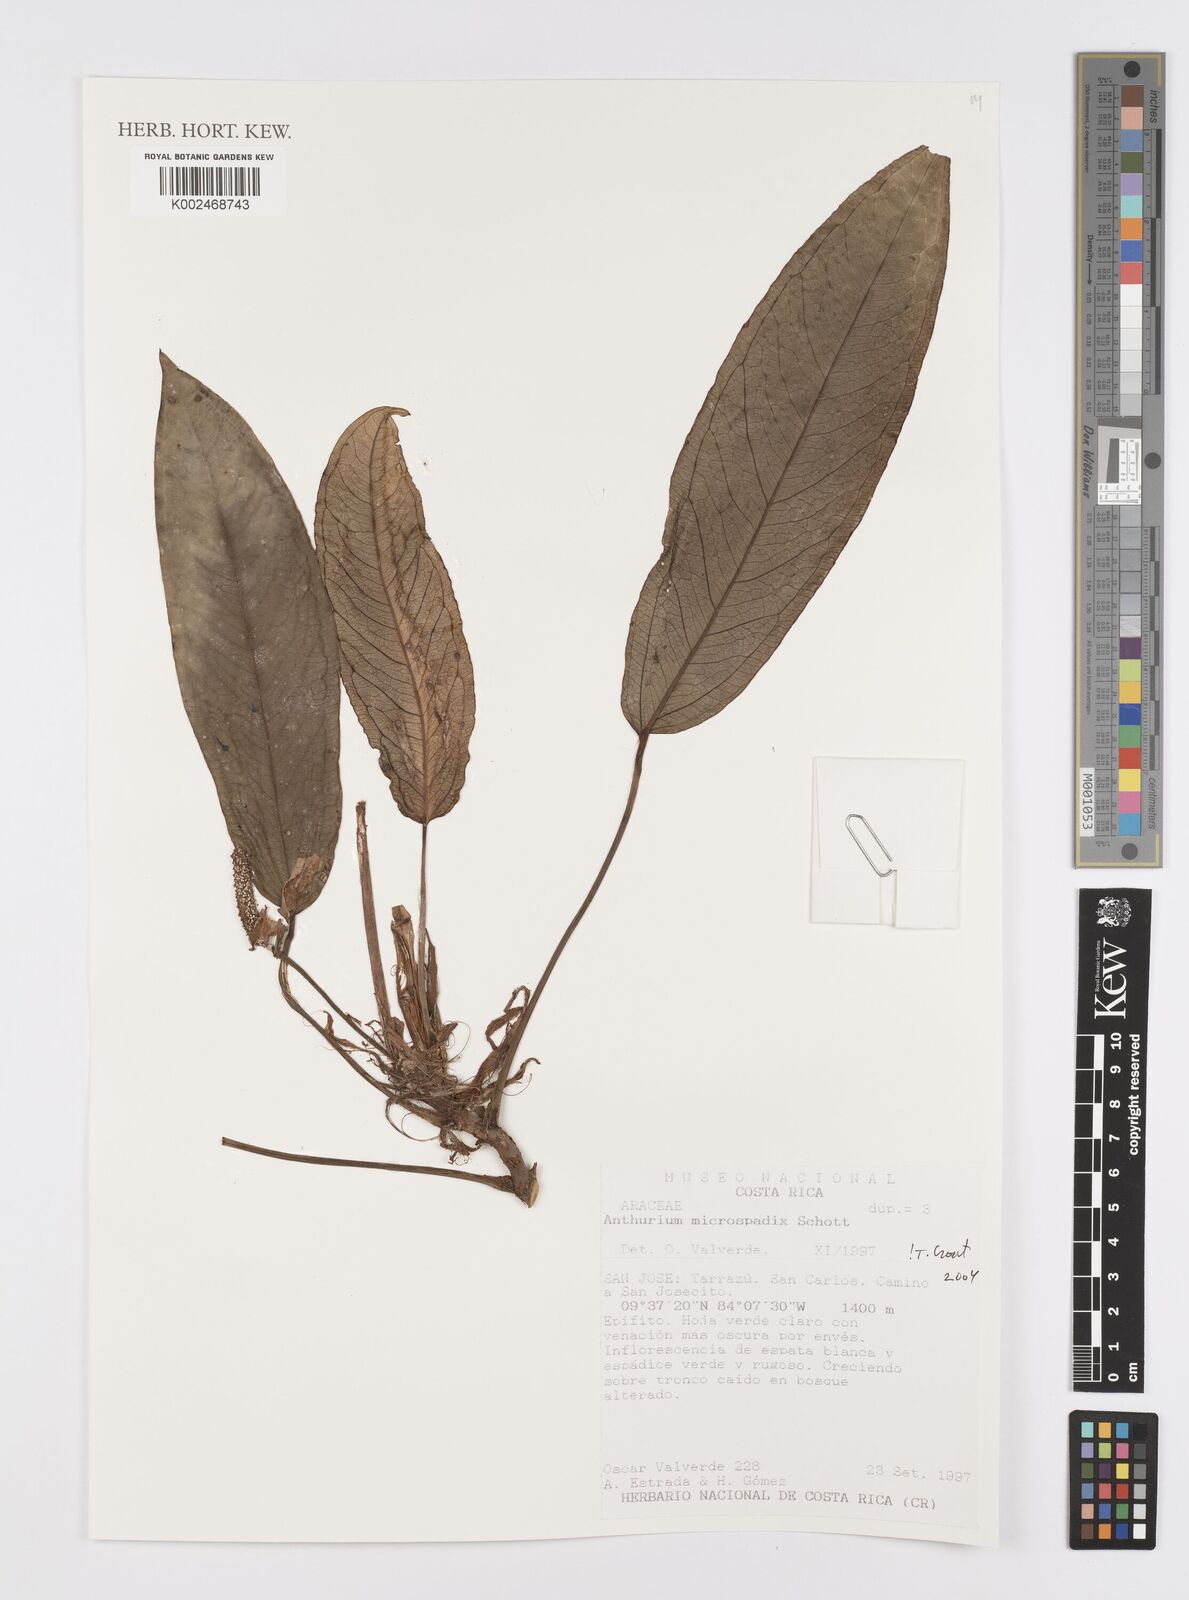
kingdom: Plantae
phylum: Tracheophyta
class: Liliopsida
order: Alismatales
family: Araceae
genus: Anthurium
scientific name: Anthurium microspadix
